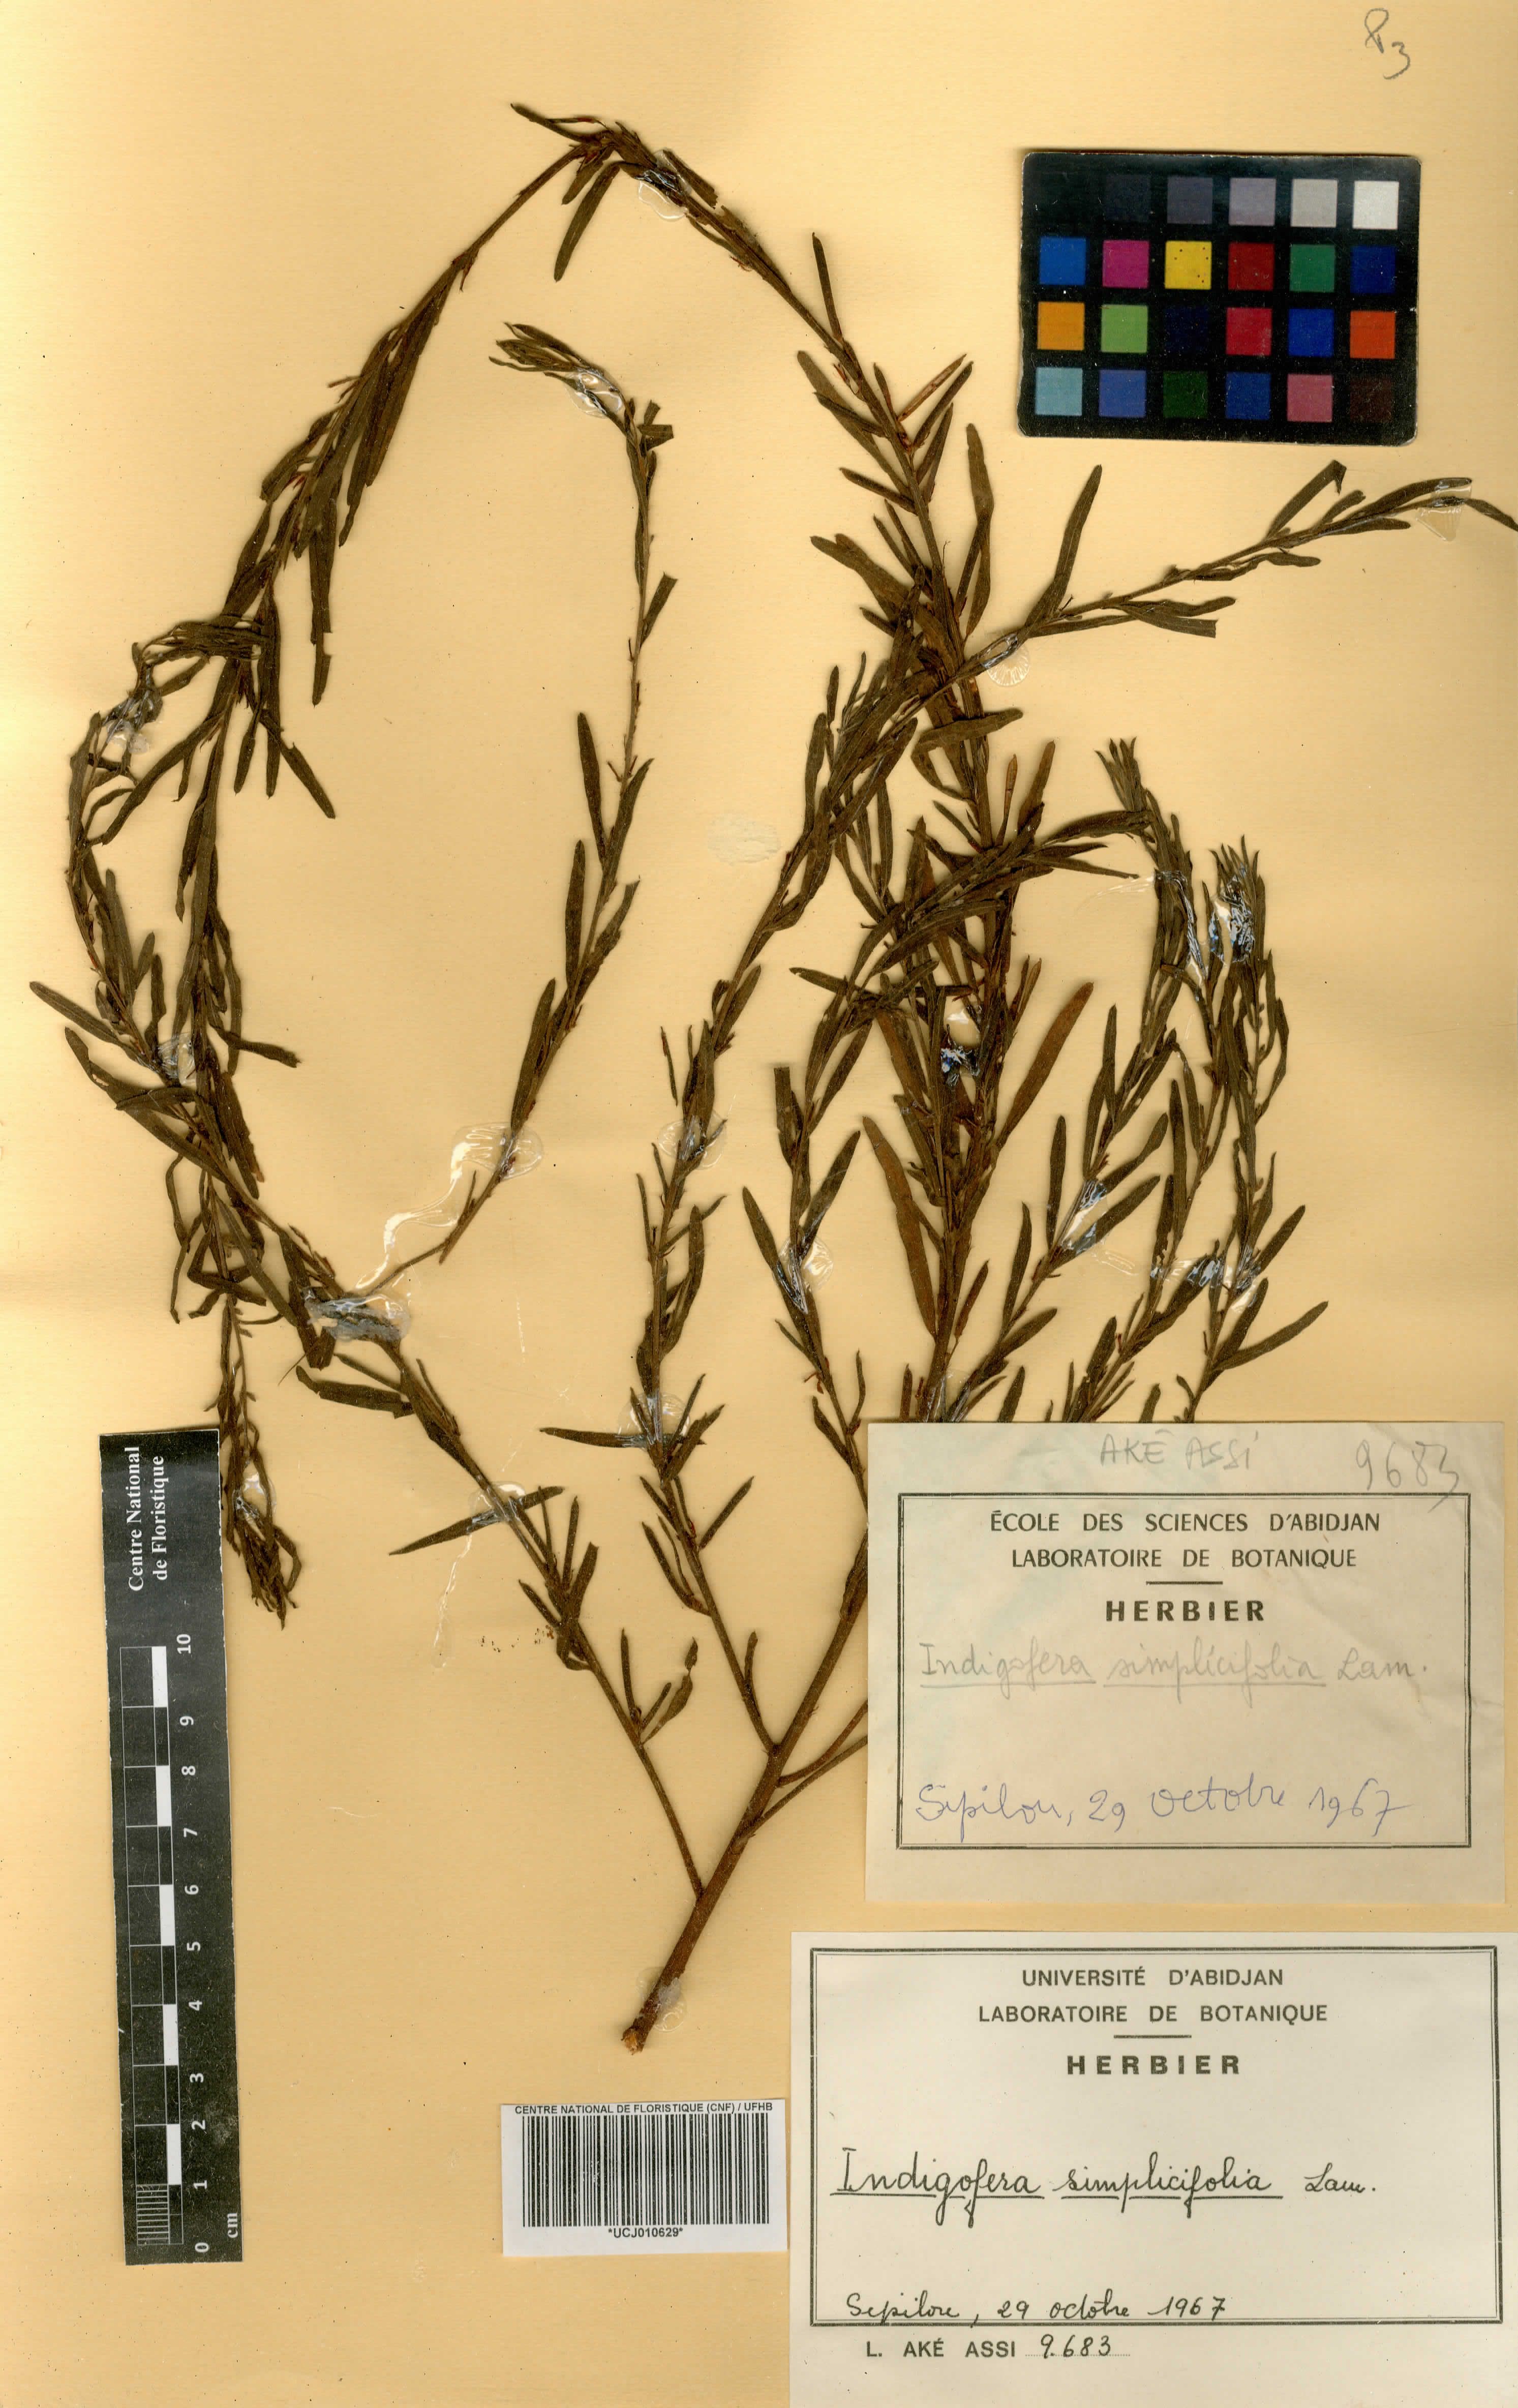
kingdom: Plantae
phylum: Tracheophyta
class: Magnoliopsida
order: Fabales
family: Fabaceae
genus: Indigofera
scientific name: Indigofera suffruticosa
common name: Anil de pasto
